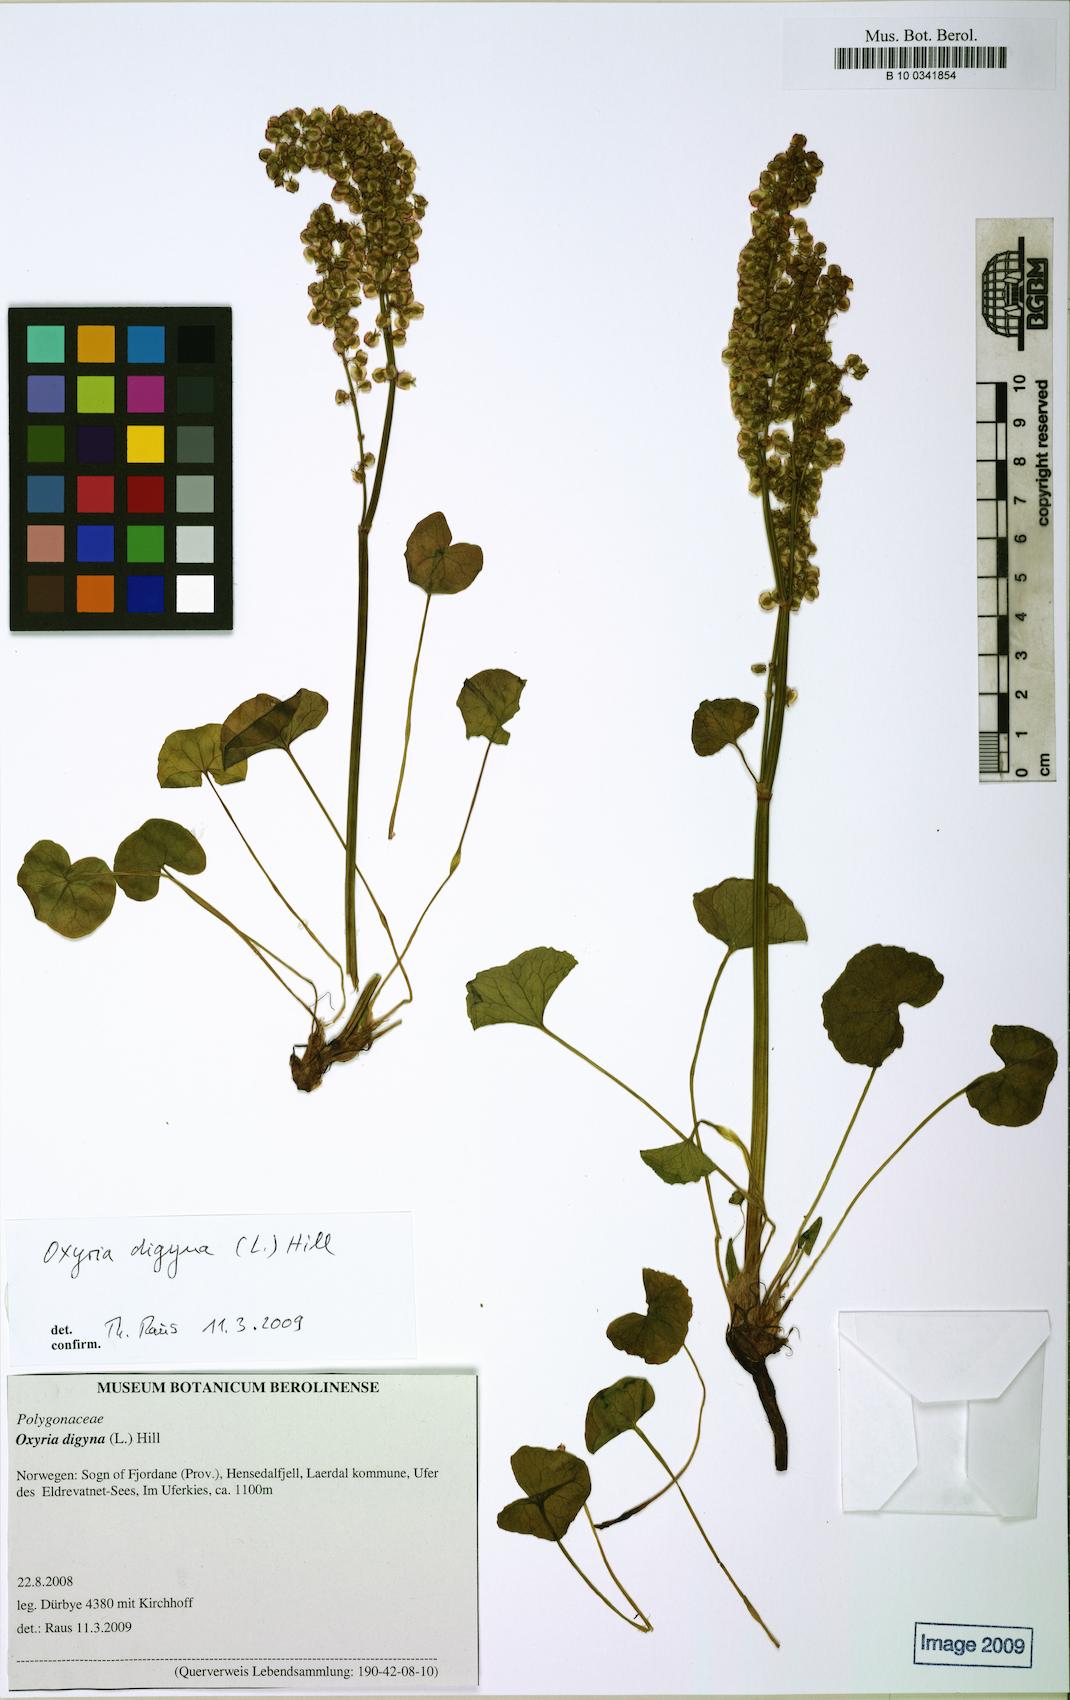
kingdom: Plantae
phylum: Tracheophyta
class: Magnoliopsida
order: Caryophyllales
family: Polygonaceae
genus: Oxyria
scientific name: Oxyria digyna
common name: Alpine mountain-sorrel
